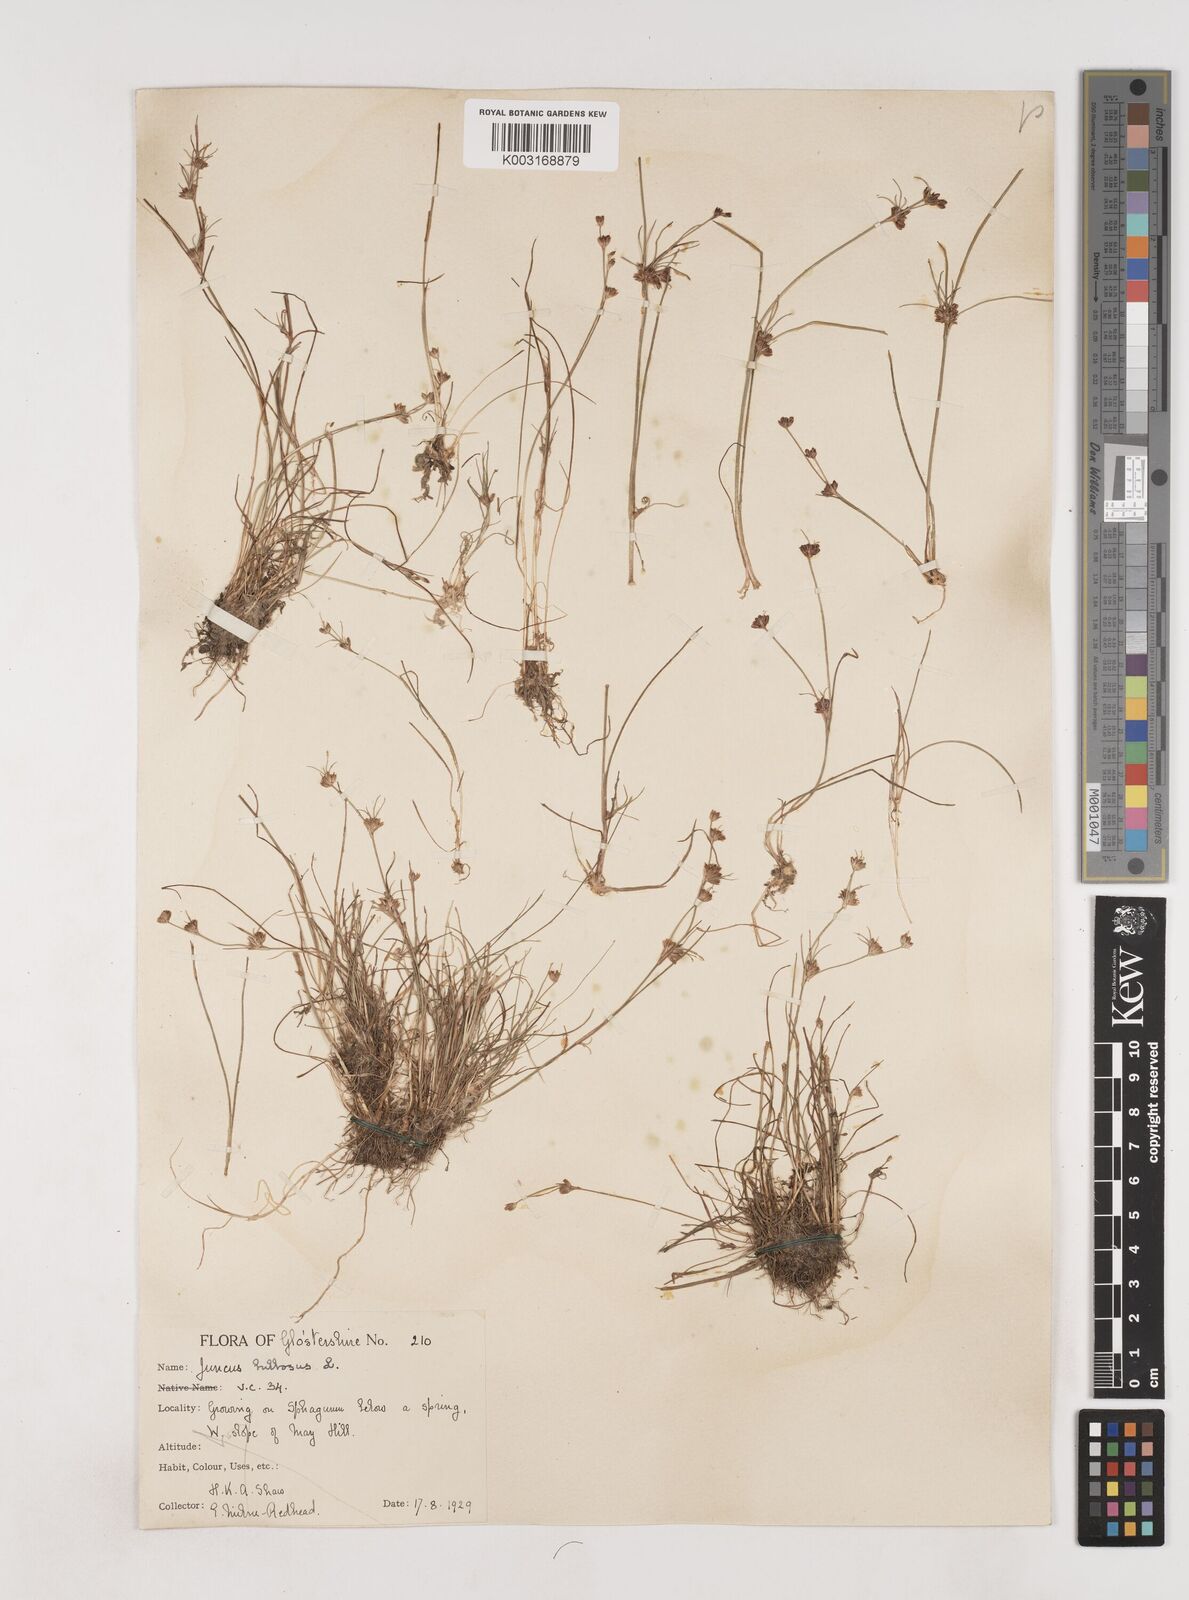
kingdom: Plantae
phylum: Tracheophyta
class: Liliopsida
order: Poales
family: Juncaceae
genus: Juncus
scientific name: Juncus bulbosus
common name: Bulbous rush
